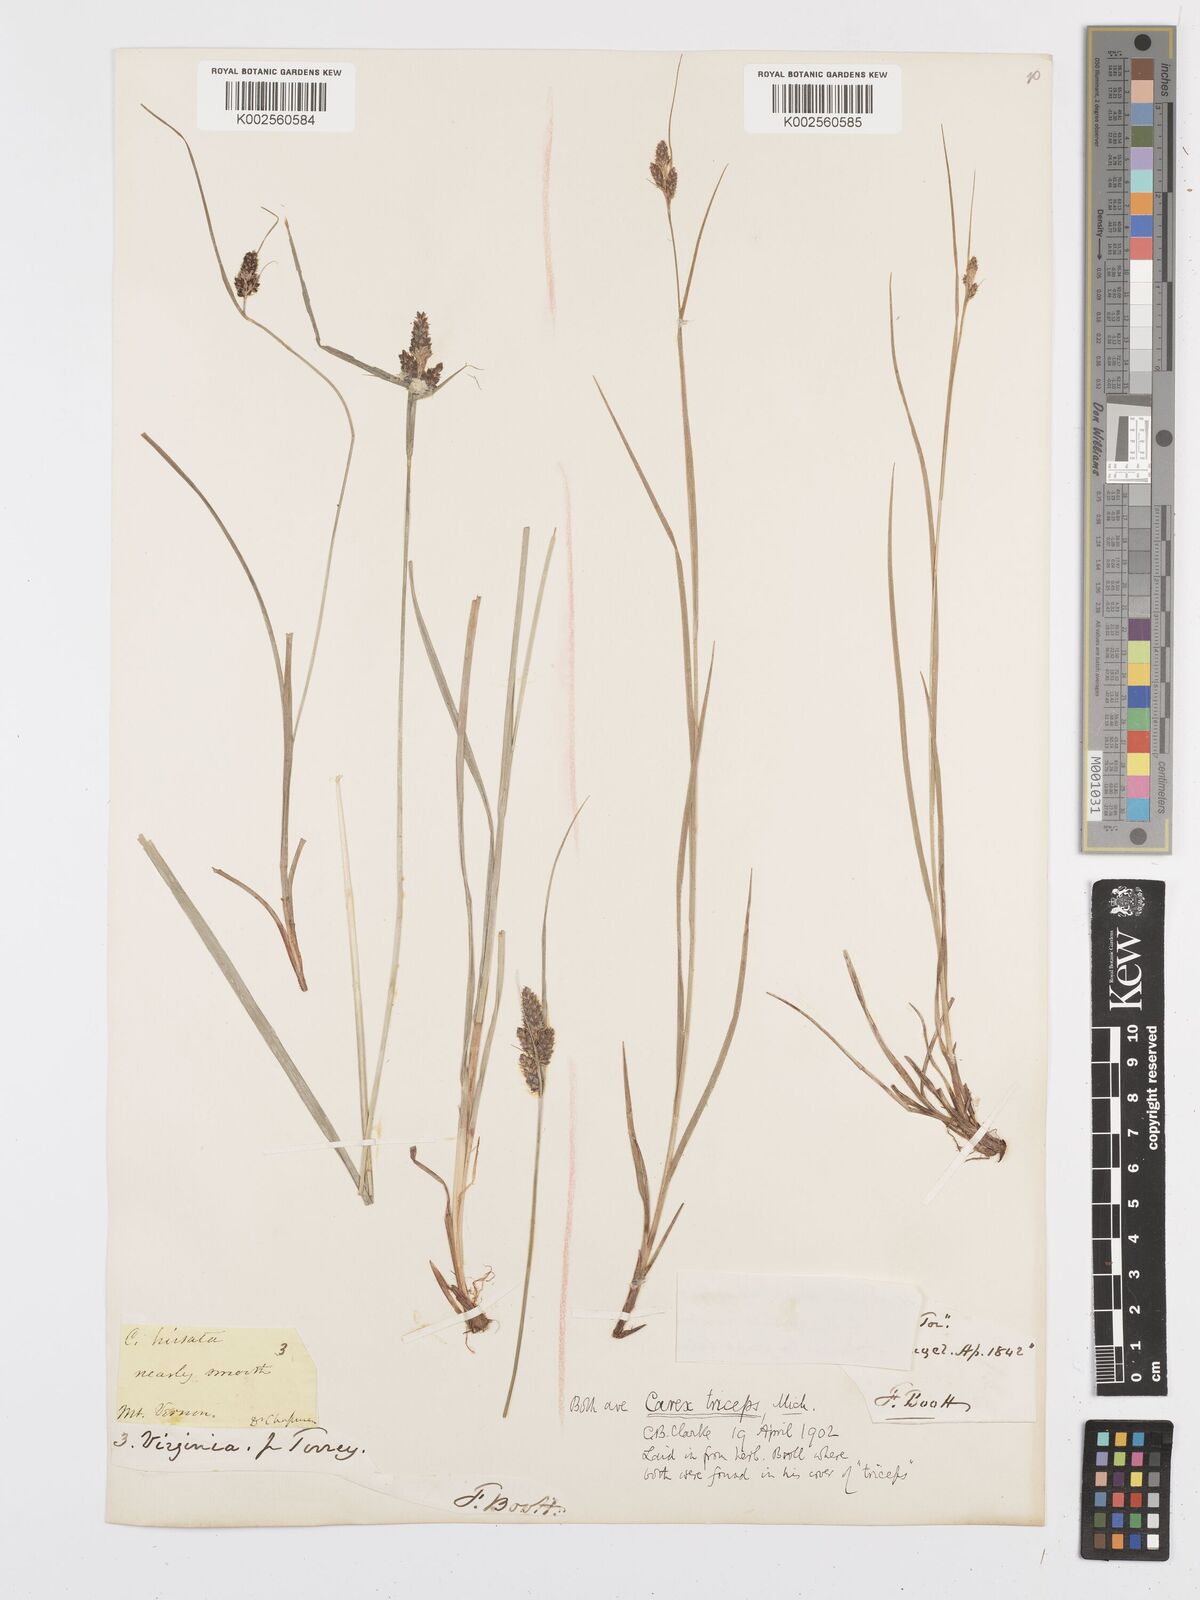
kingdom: Plantae
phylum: Tracheophyta
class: Liliopsida
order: Poales
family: Cyperaceae
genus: Carex
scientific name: Carex complanata
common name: Hirsute sedge
